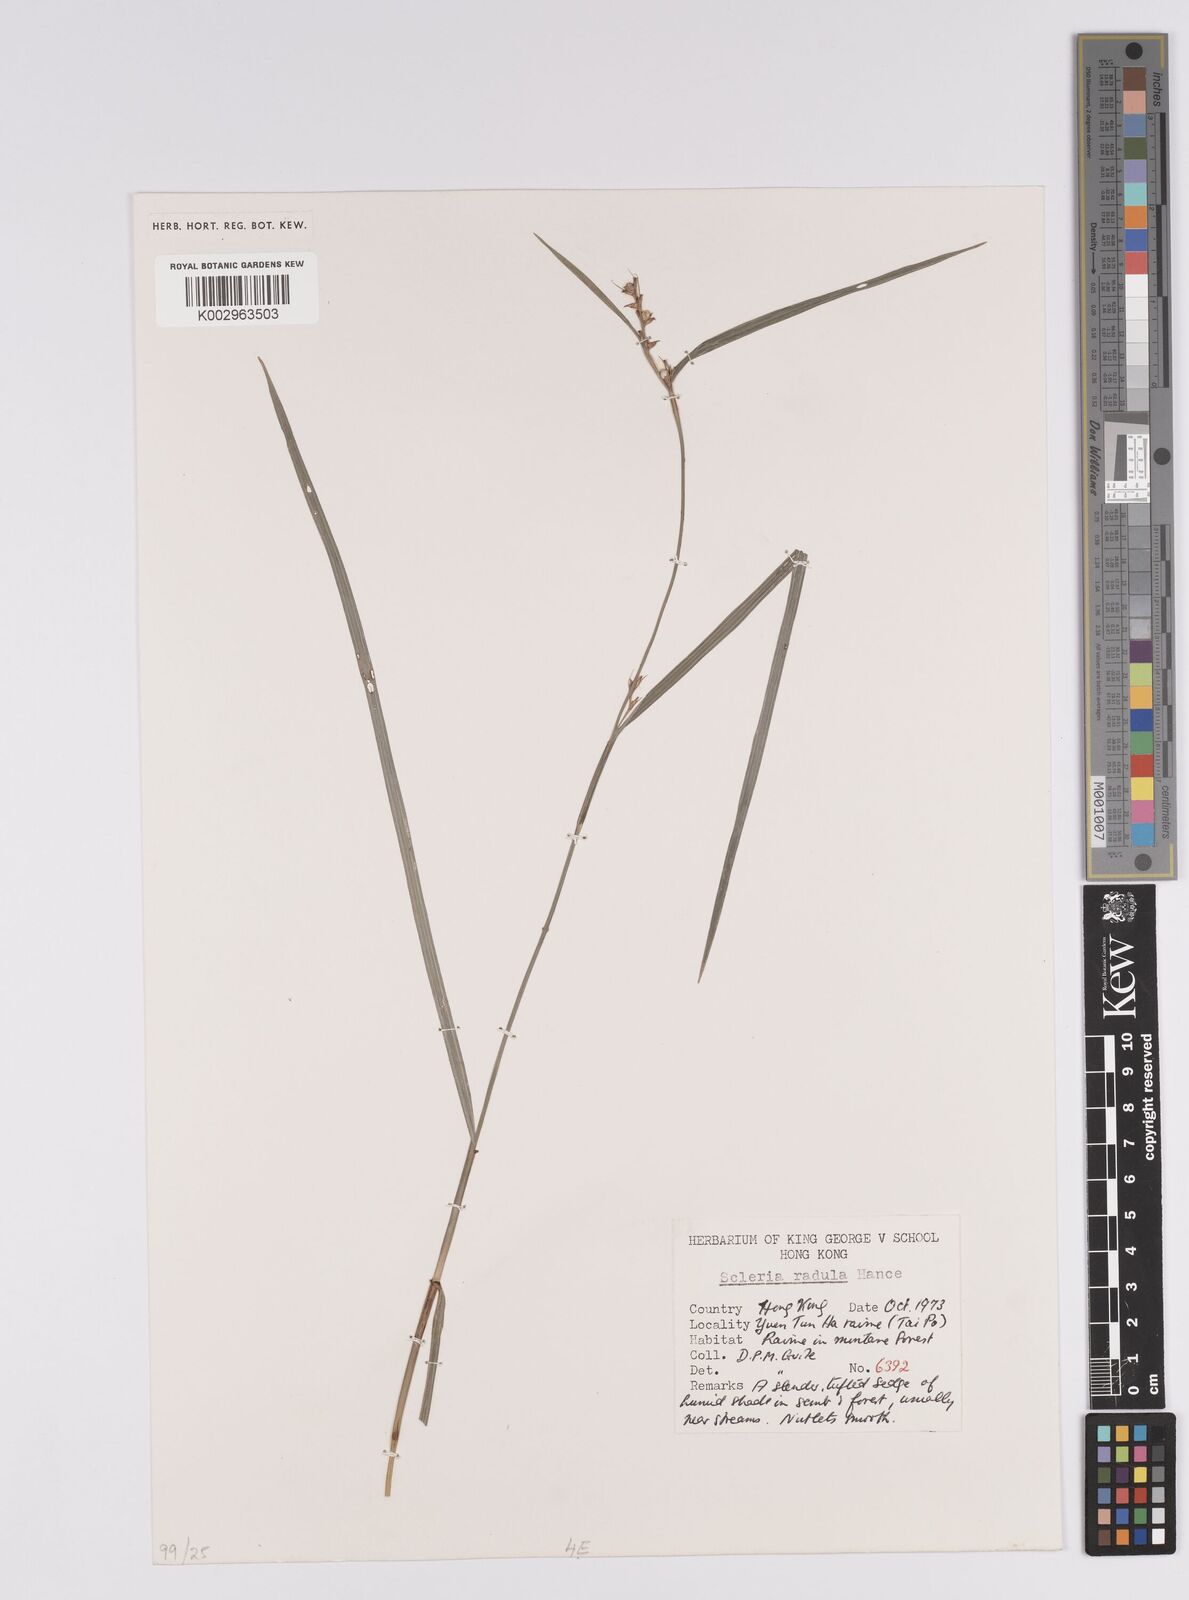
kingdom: Plantae
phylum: Tracheophyta
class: Liliopsida
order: Poales
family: Cyperaceae
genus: Scleria
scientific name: Scleria radula
